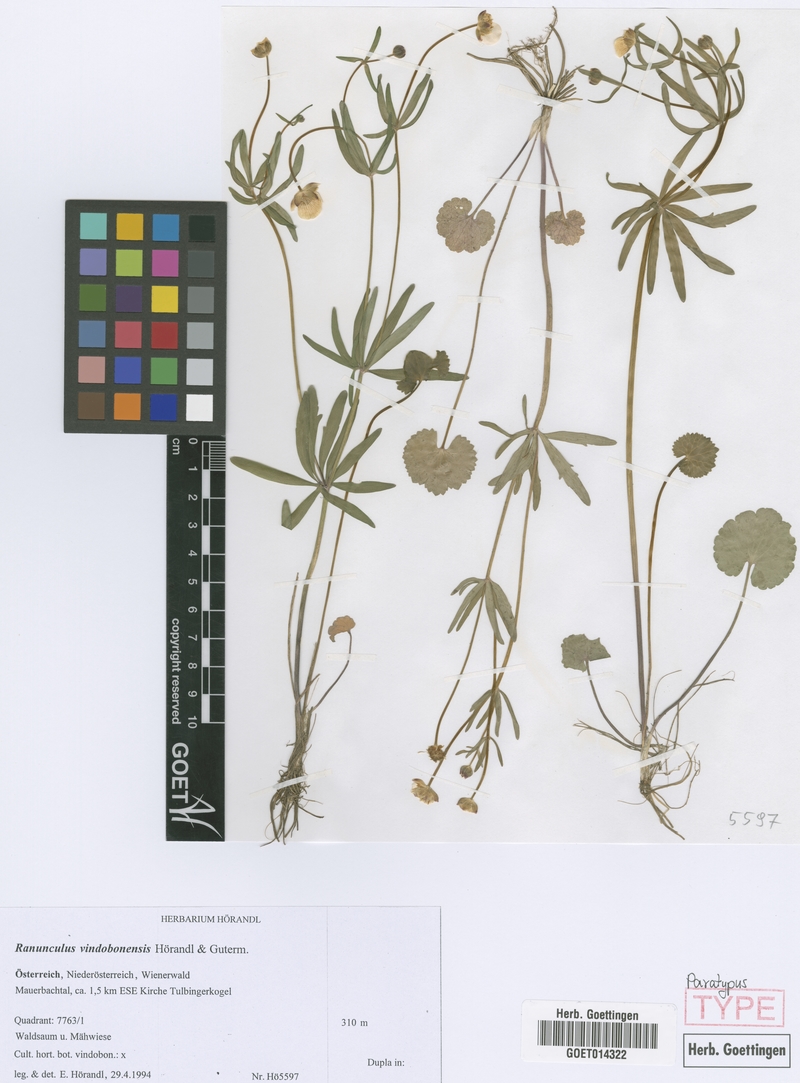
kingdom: Plantae
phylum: Tracheophyta
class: Magnoliopsida
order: Ranunculales
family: Ranunculaceae
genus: Ranunculus
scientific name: Ranunculus vindobonensis
